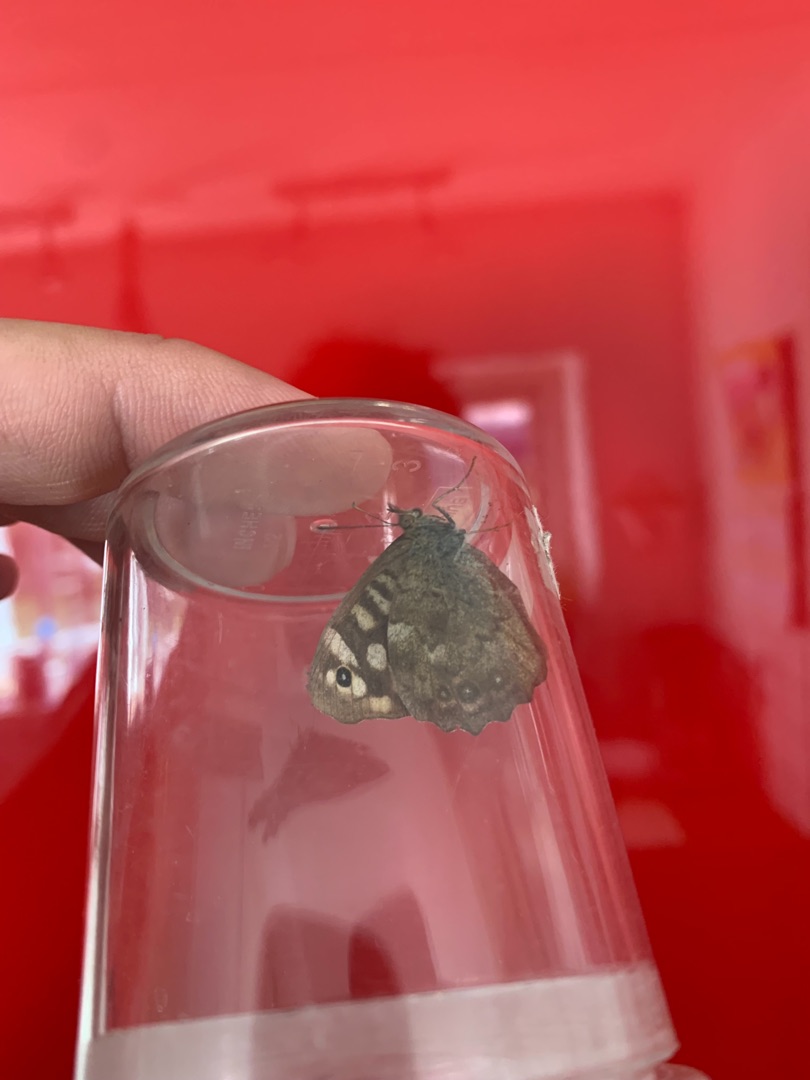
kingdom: Animalia
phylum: Arthropoda
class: Insecta
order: Lepidoptera
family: Nymphalidae
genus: Pararge
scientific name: Pararge aegeria
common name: Skovrandøje
